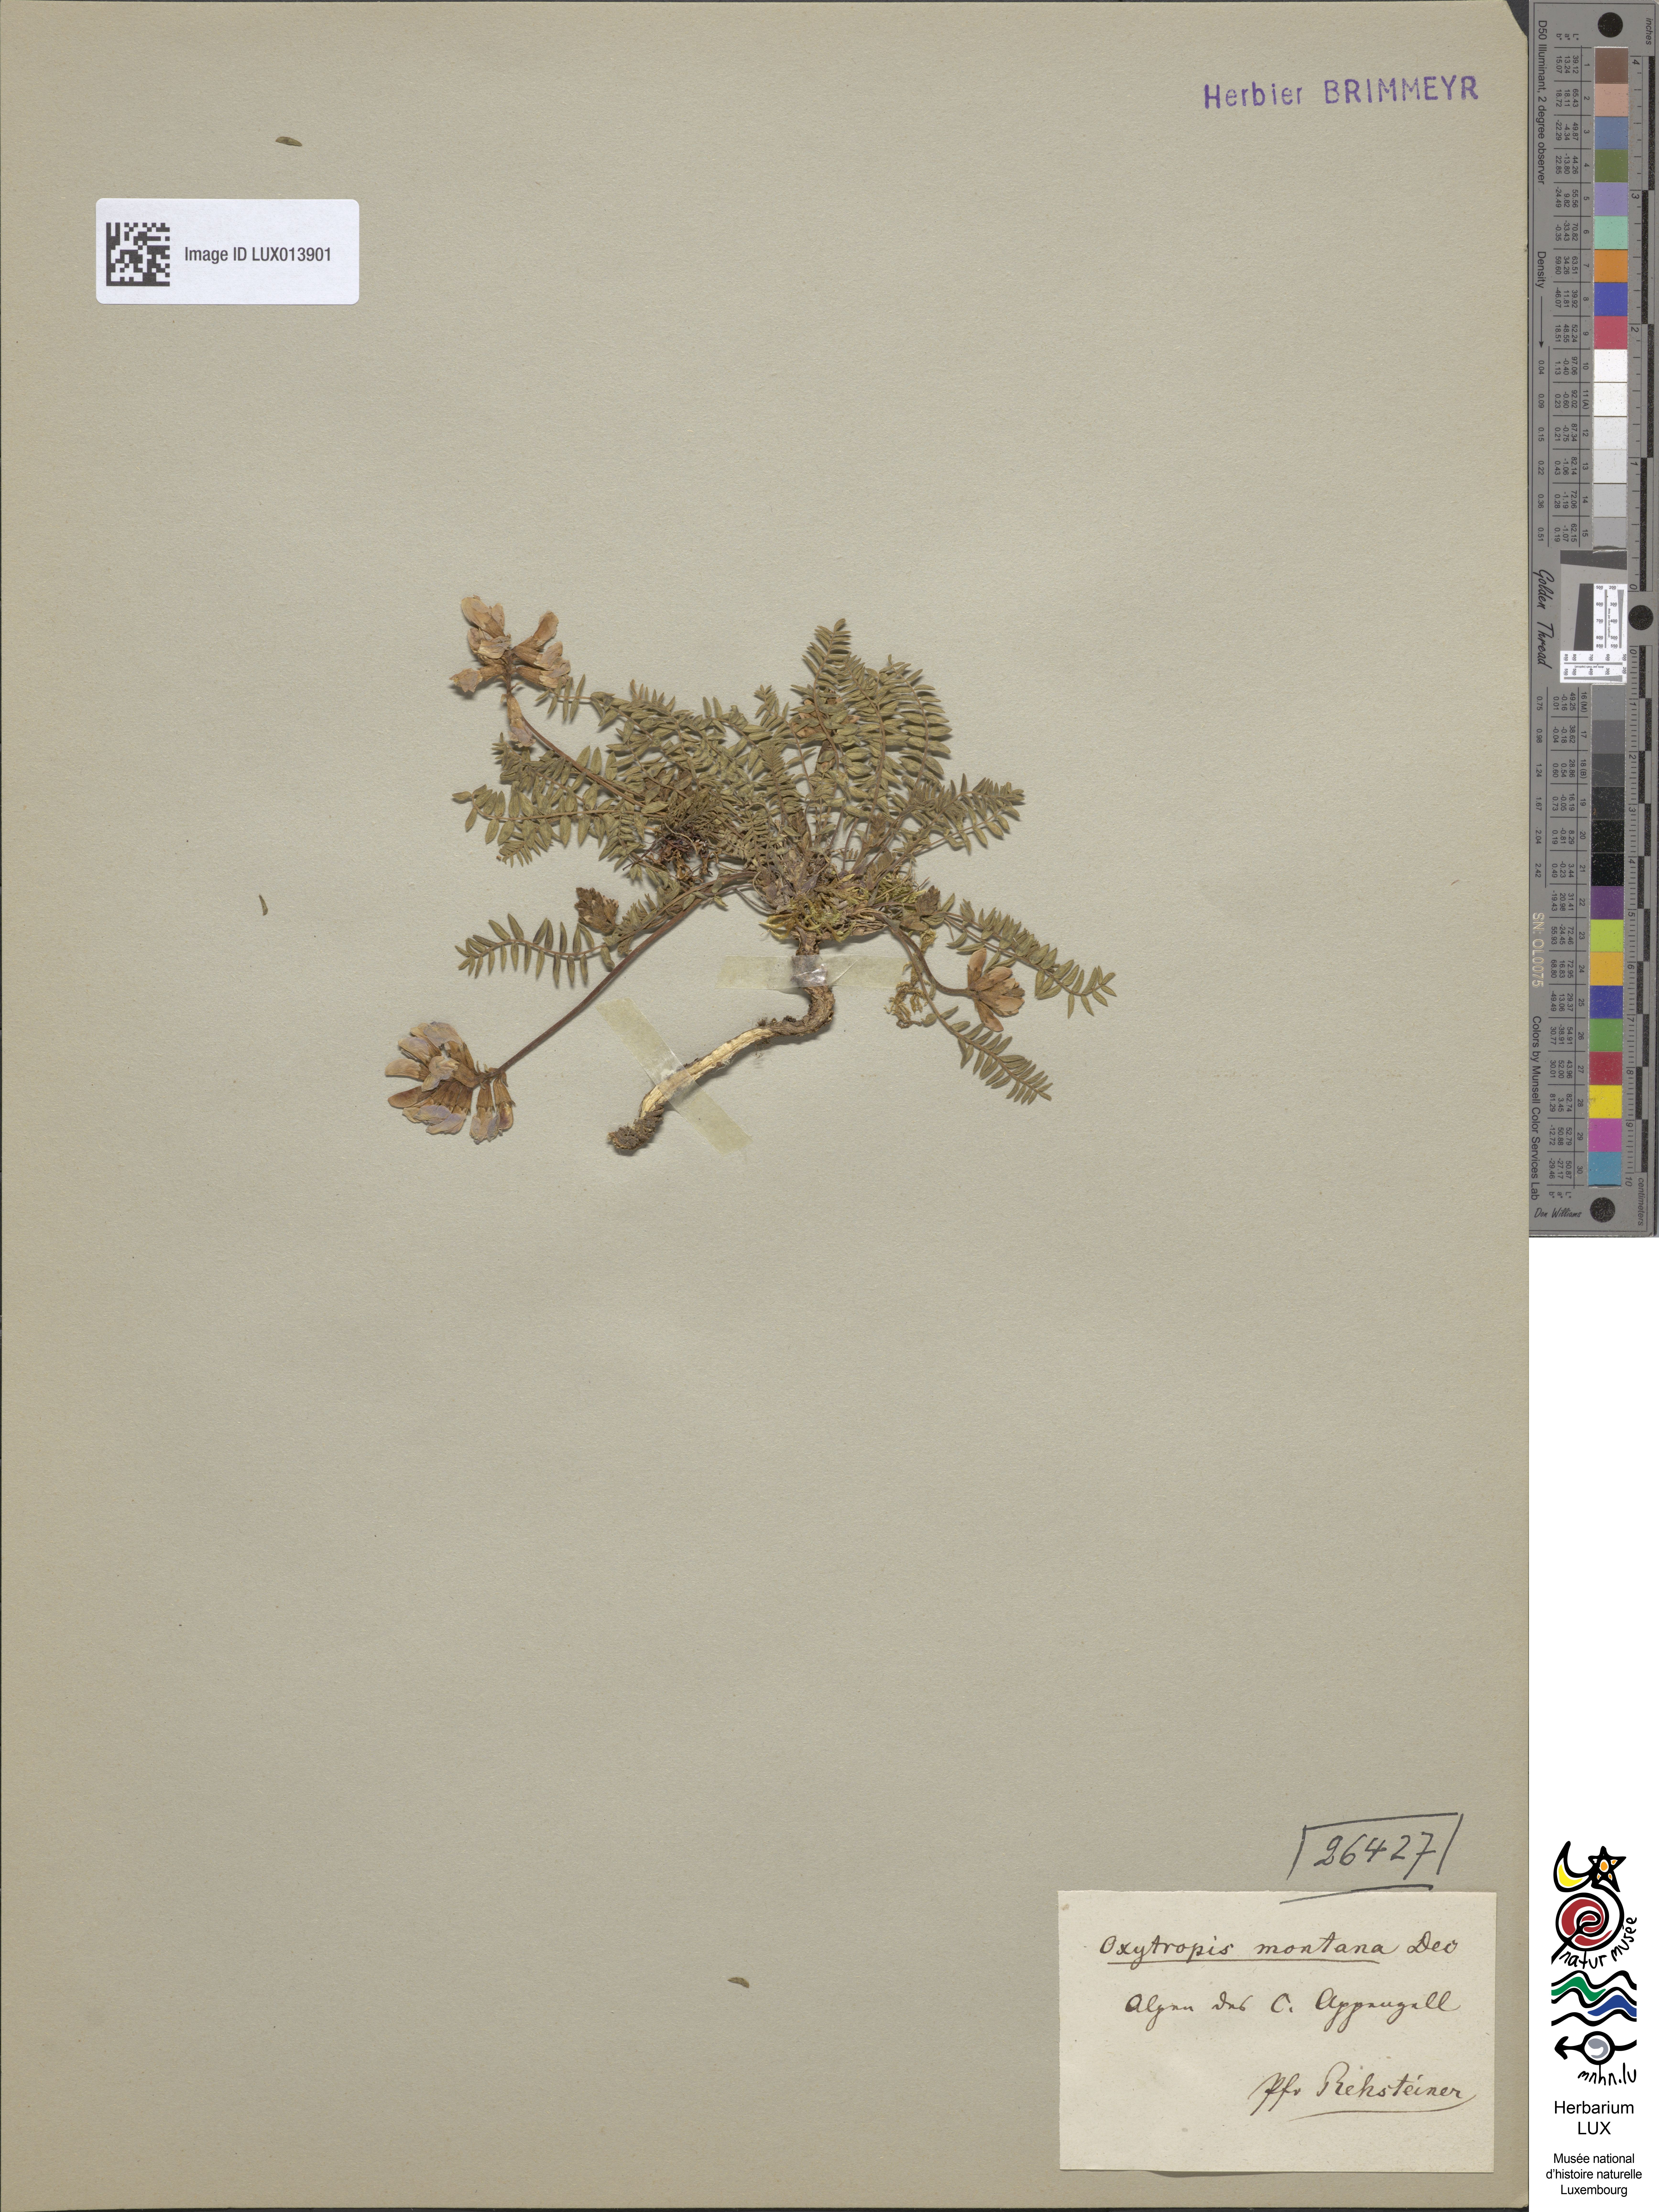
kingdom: Plantae
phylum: Tracheophyta
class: Magnoliopsida
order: Fabales
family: Fabaceae
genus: Oxytropis
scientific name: Oxytropis montana
